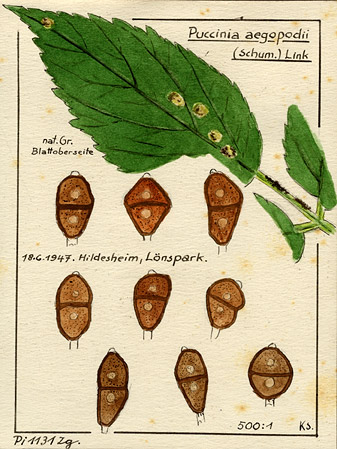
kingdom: Fungi
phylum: Basidiomycota
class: Pucciniomycetes
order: Pucciniales
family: Pucciniaceae
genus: Puccinia
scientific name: Puccinia aegopodii
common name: Ground elder rust
